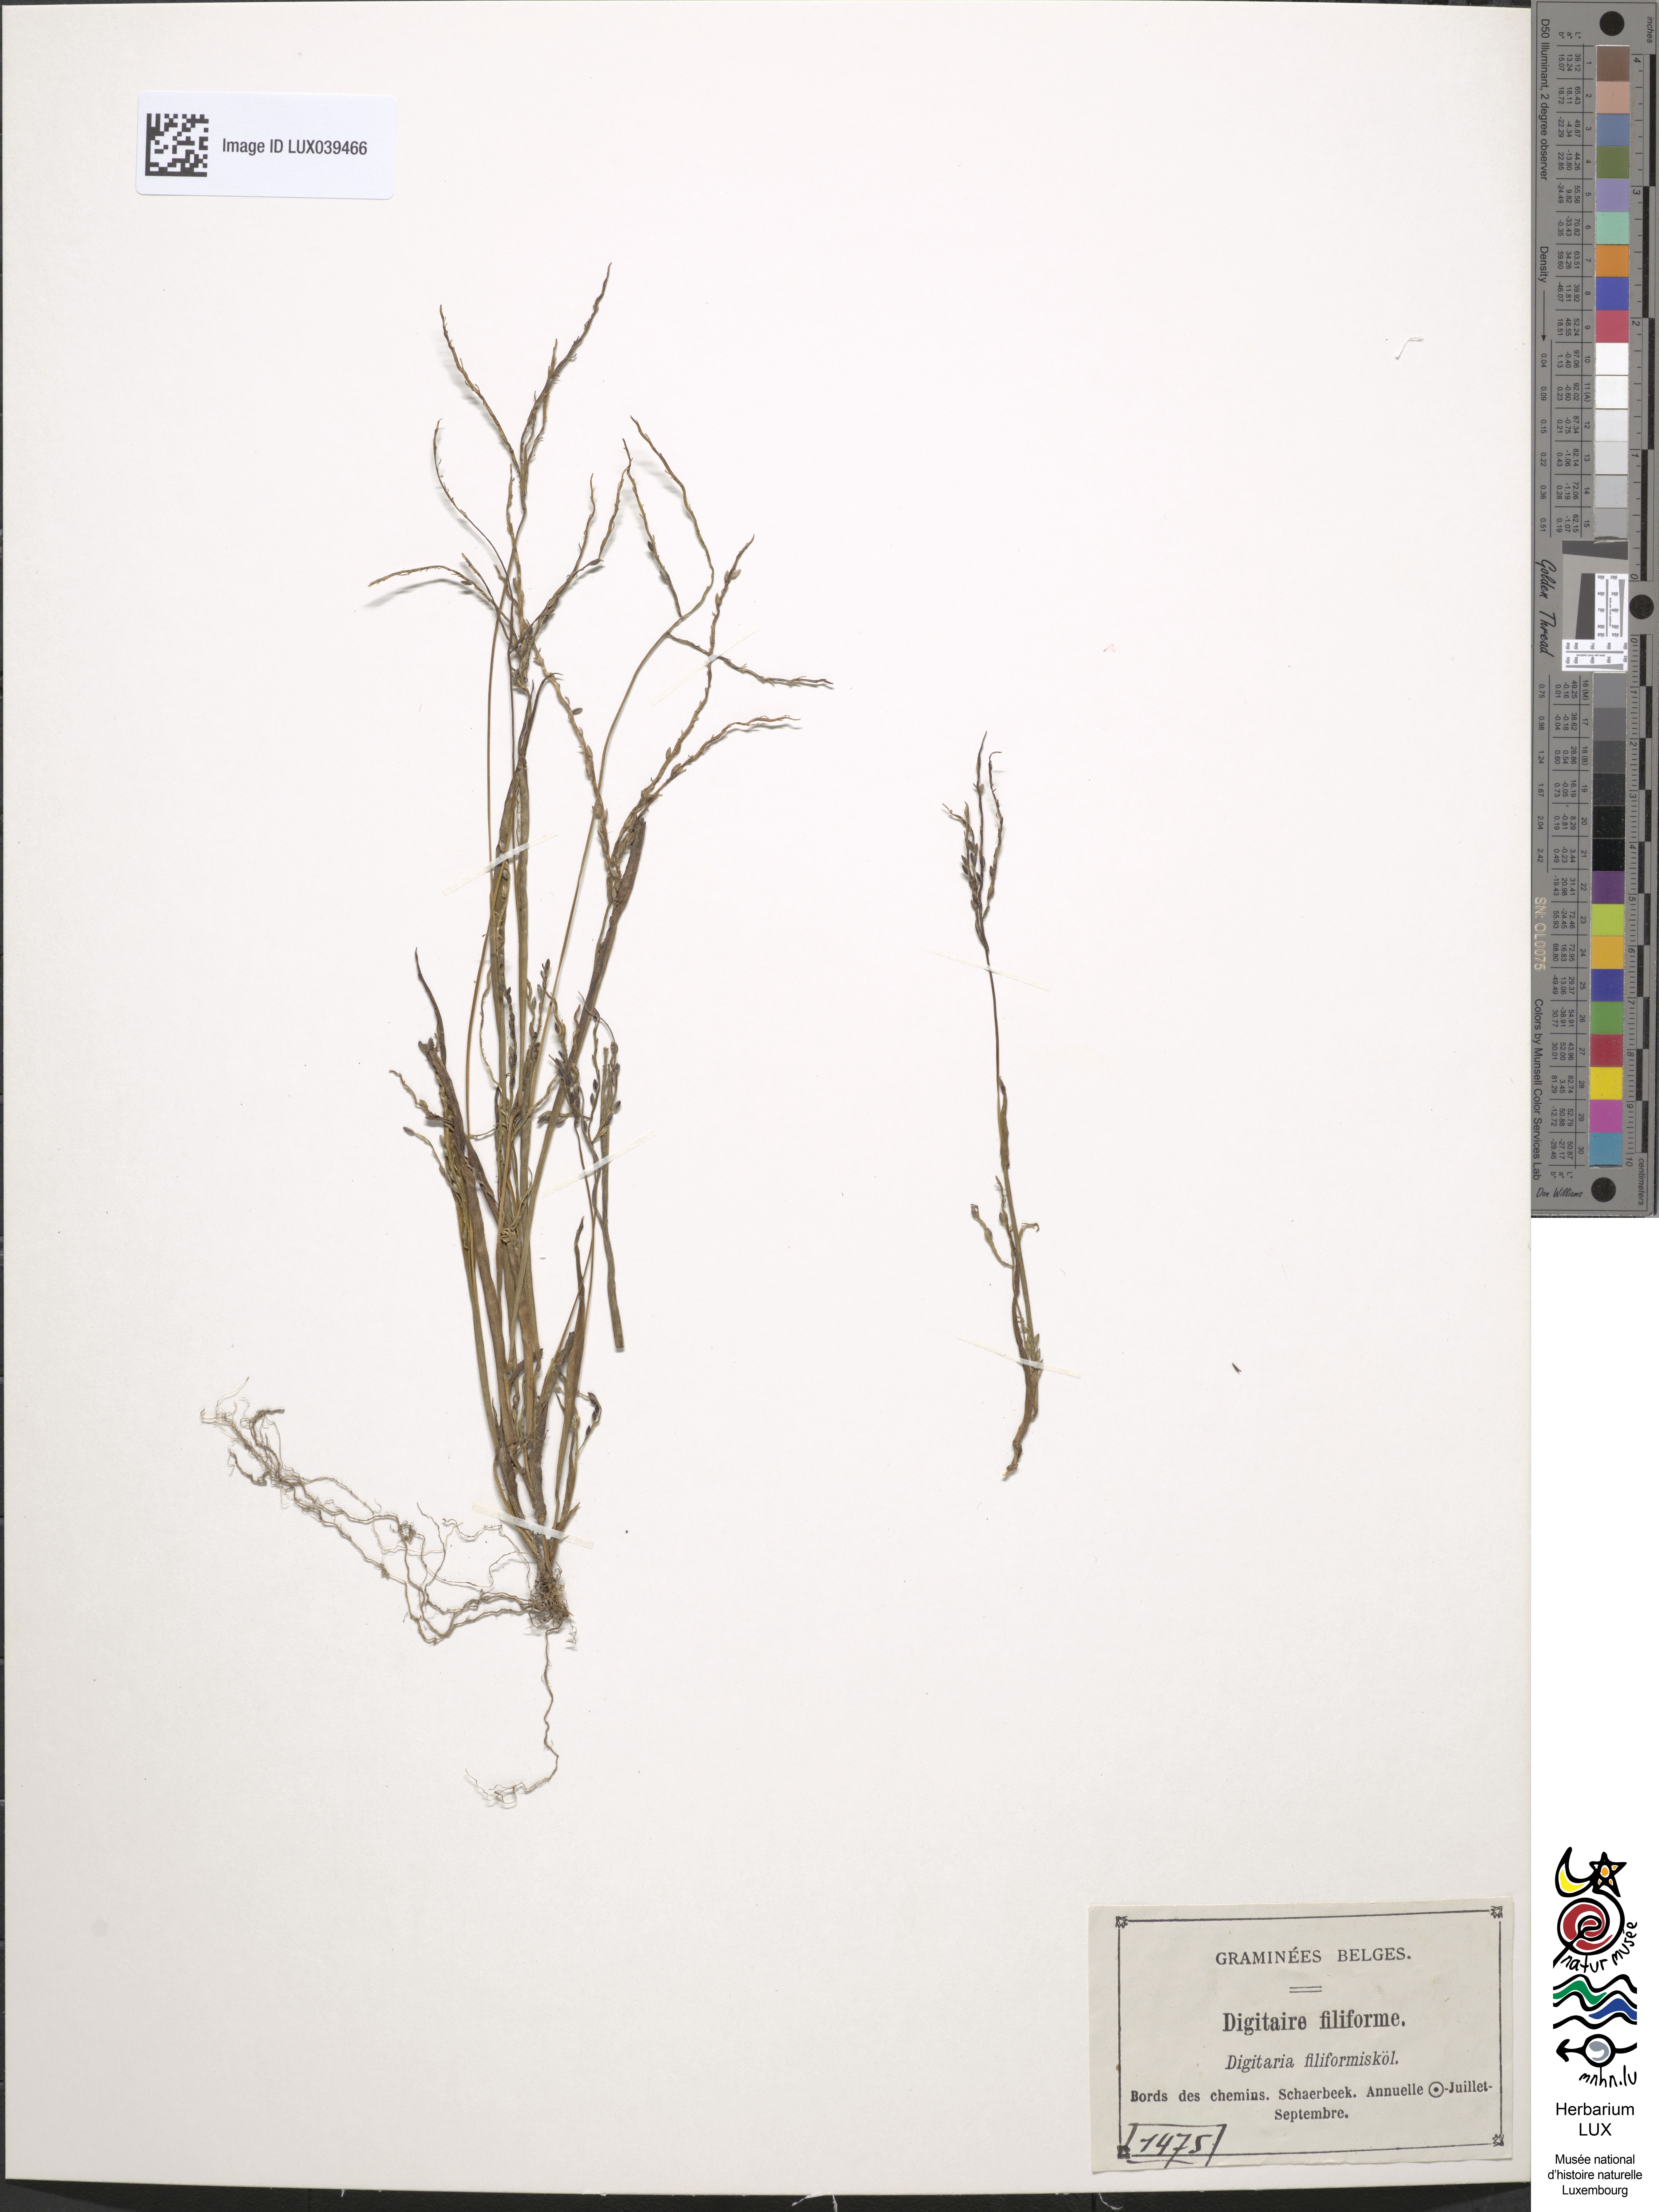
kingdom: Plantae
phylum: Tracheophyta
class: Liliopsida
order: Poales
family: Poaceae
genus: Digitaria
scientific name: Digitaria ischaemum
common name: Smooth crabgrass
